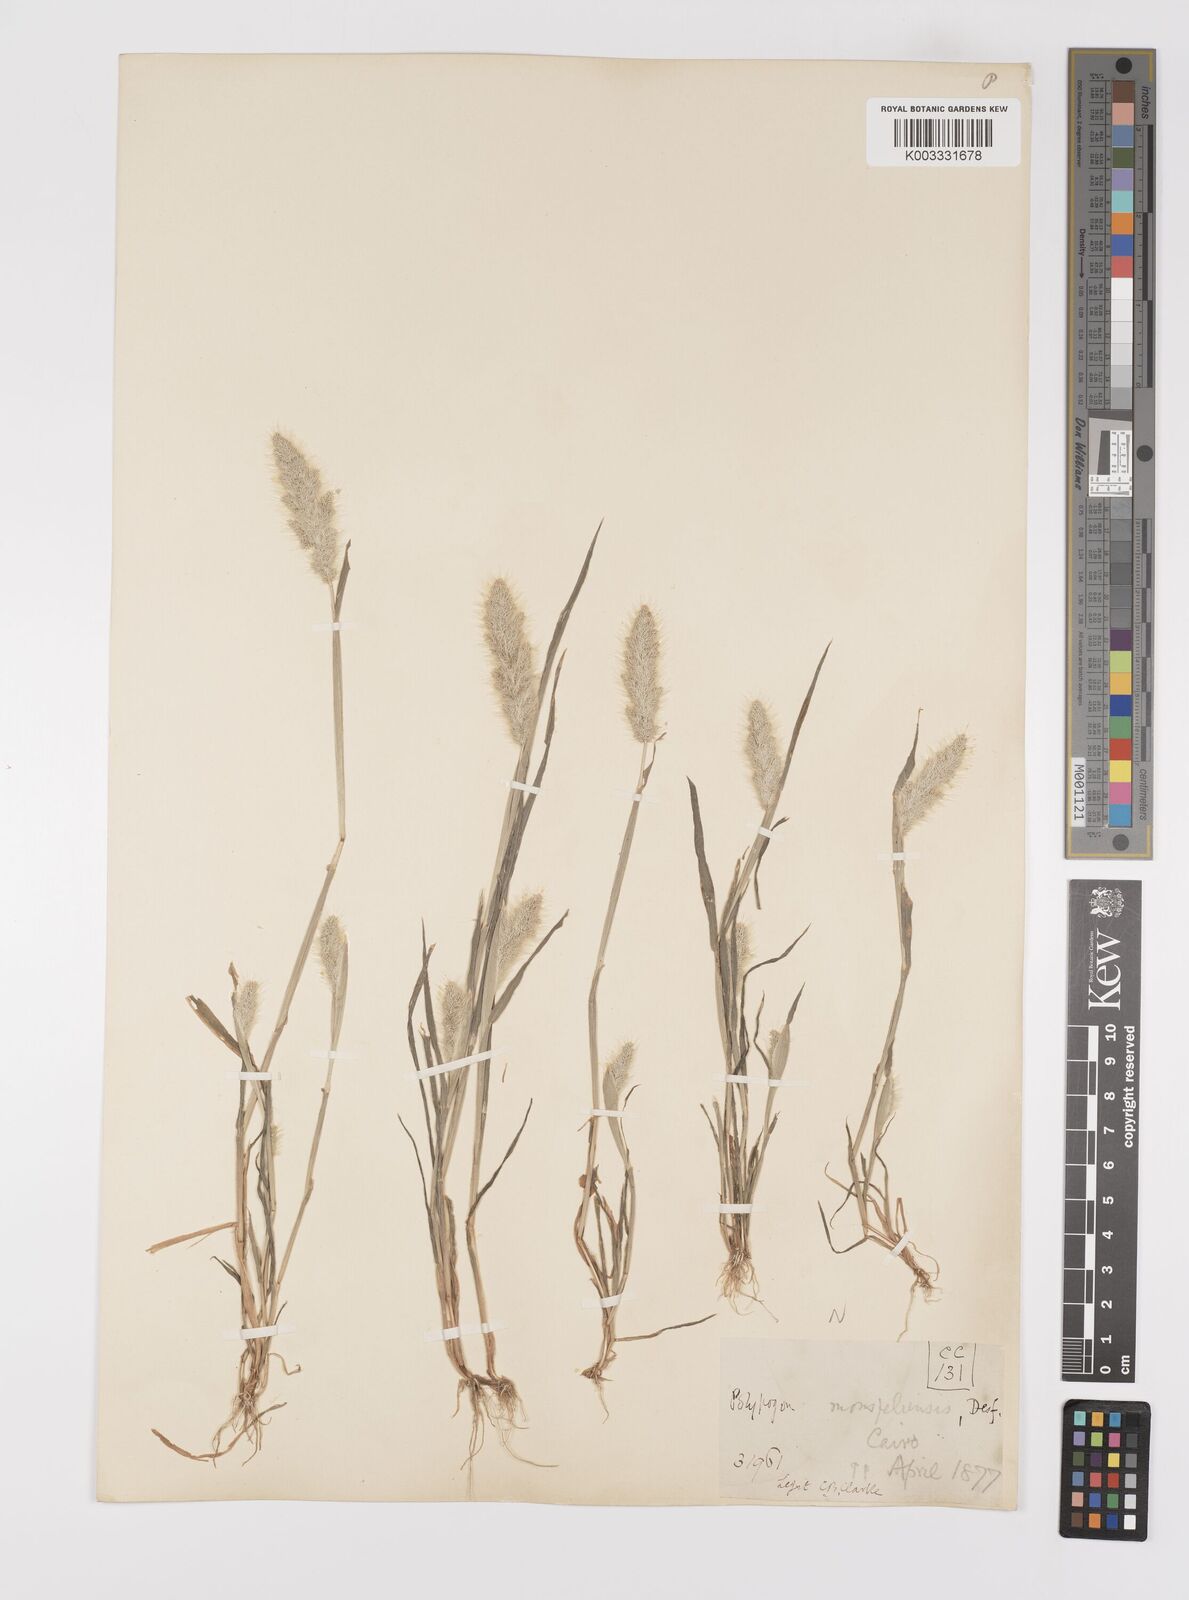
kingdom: Plantae
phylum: Tracheophyta
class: Liliopsida
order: Poales
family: Poaceae
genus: Polypogon
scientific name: Polypogon monspeliensis
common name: Annual rabbitsfoot grass
